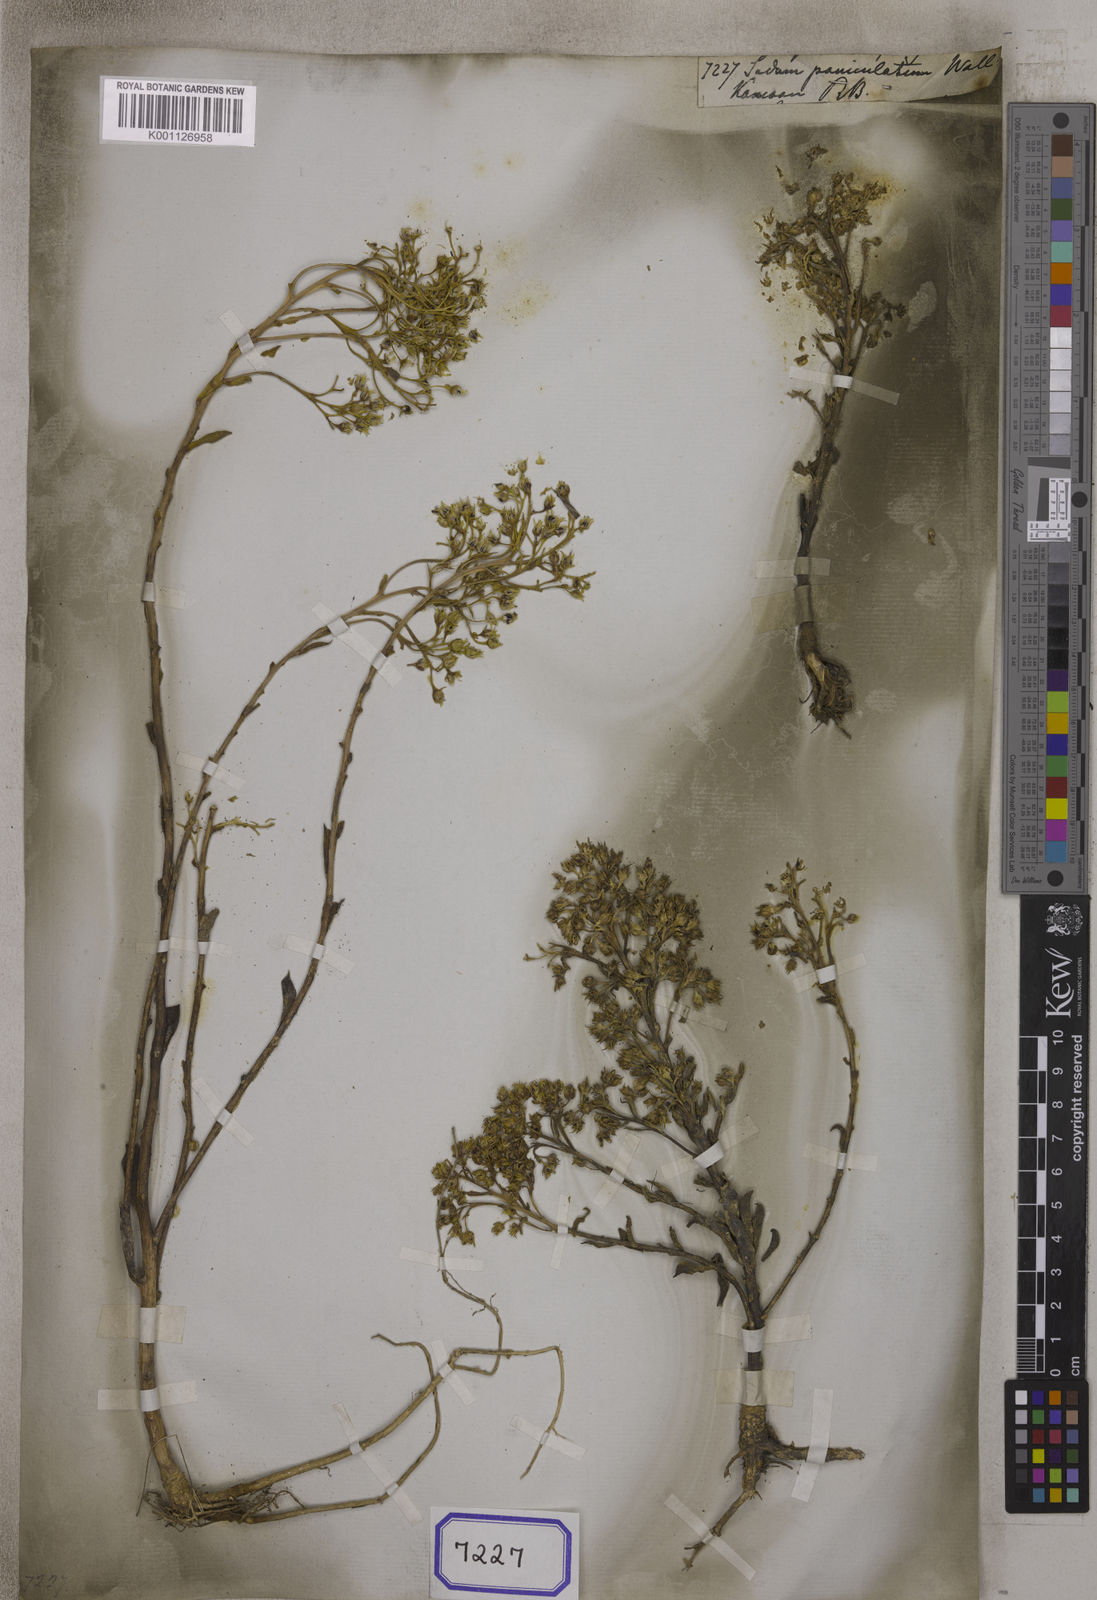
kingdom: Plantae
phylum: Tracheophyta
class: Magnoliopsida
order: Saxifragales
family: Crassulaceae
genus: Sinocrassula
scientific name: Sinocrassula indica
